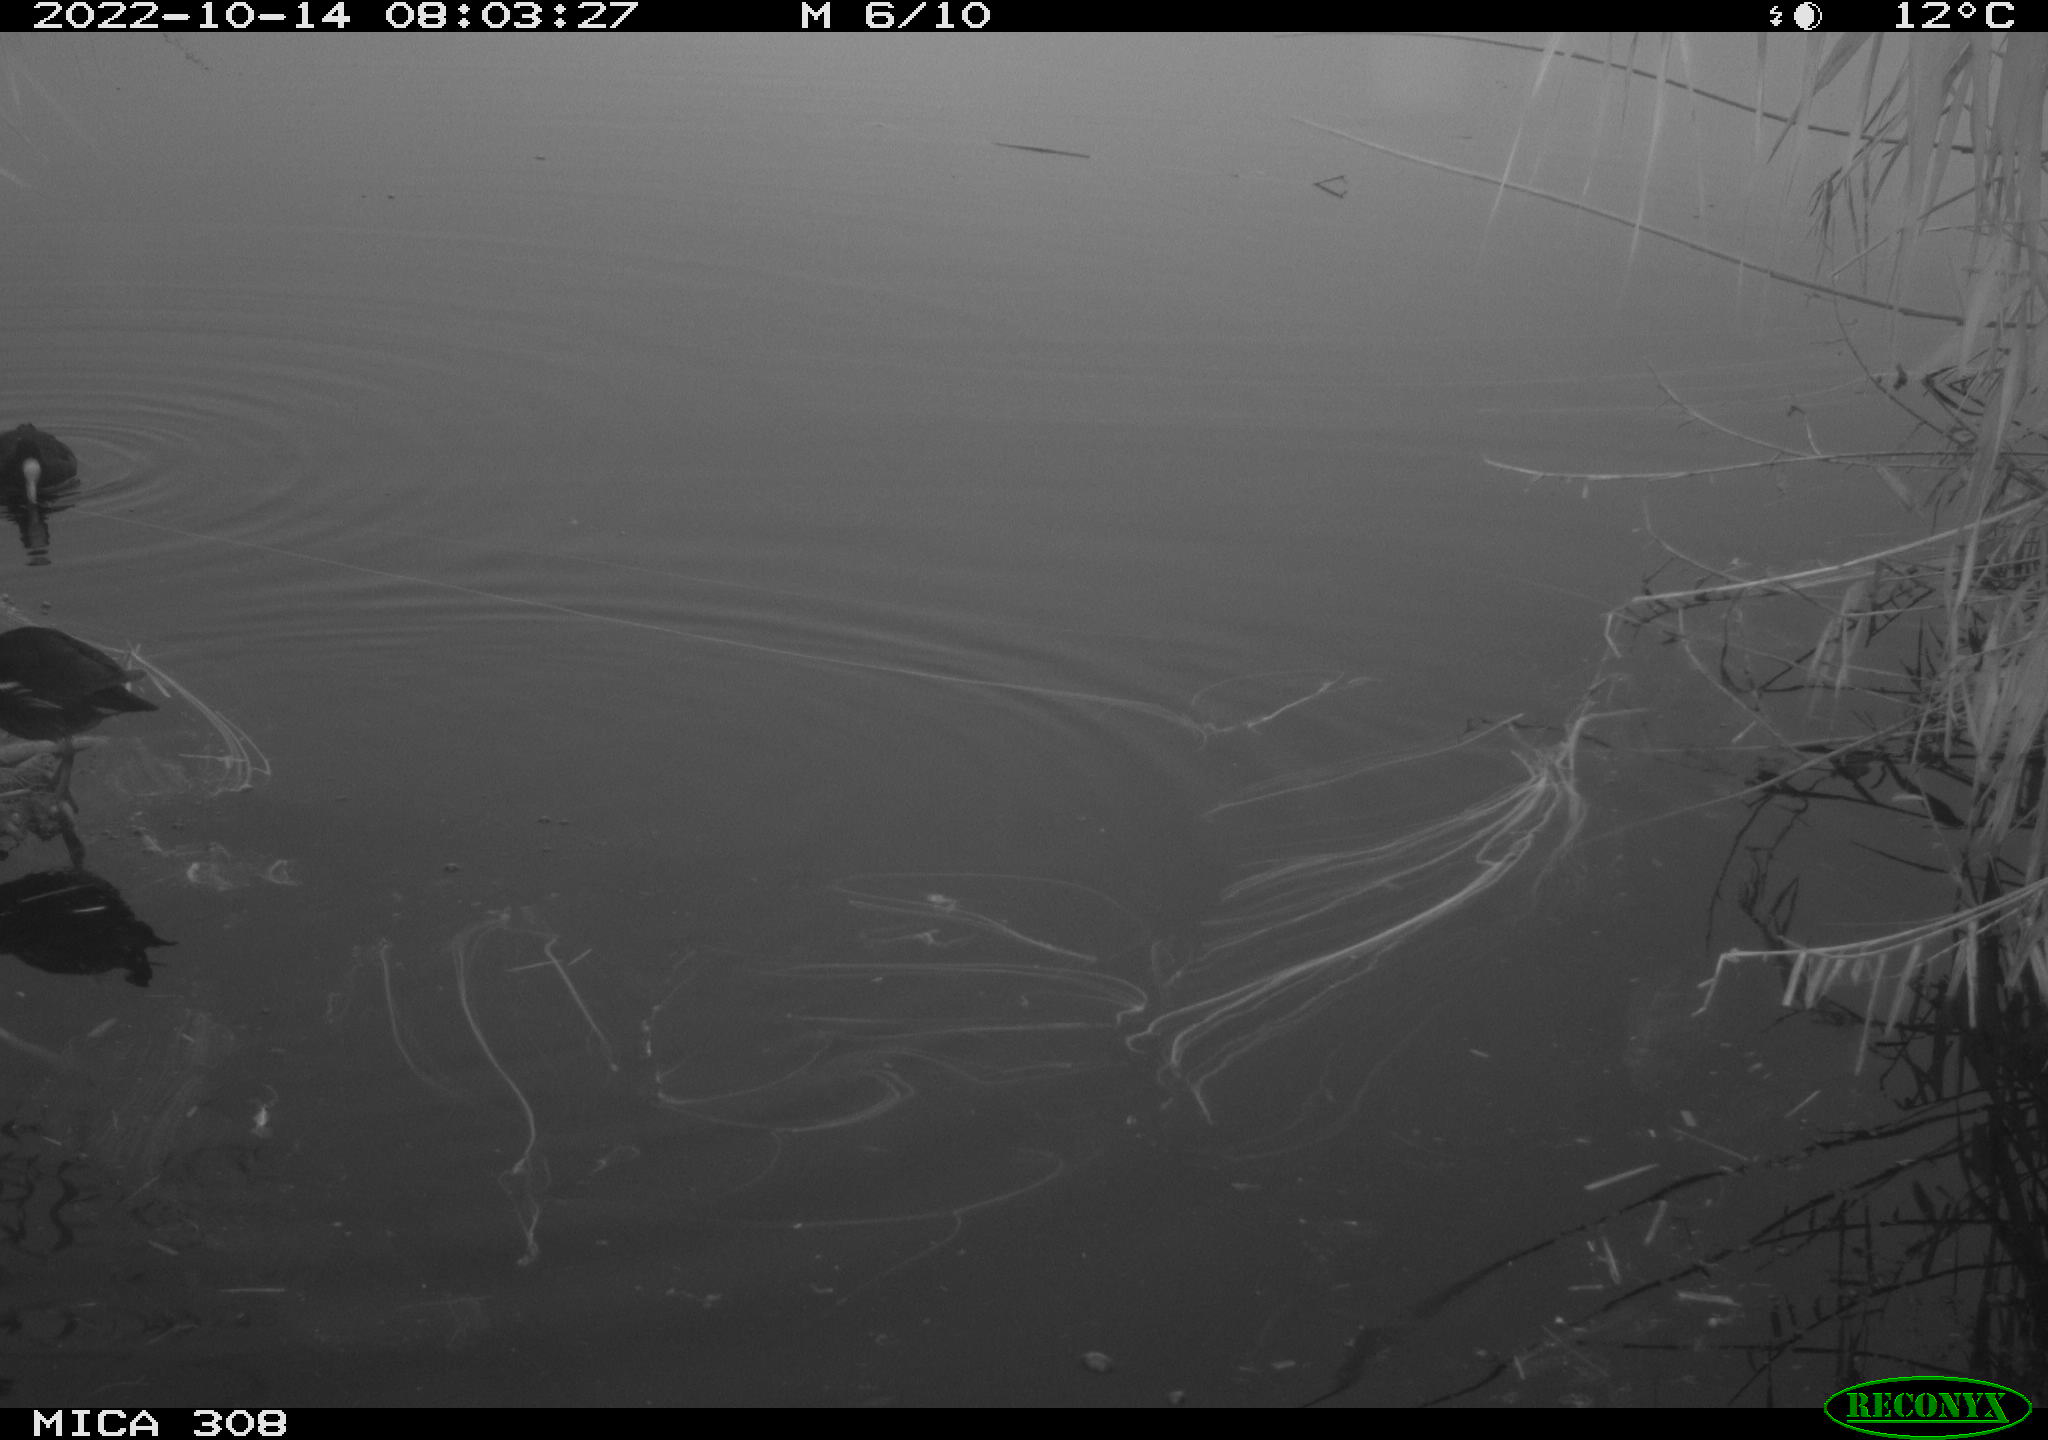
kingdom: Animalia
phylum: Chordata
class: Aves
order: Gruiformes
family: Rallidae
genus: Gallinula
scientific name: Gallinula chloropus
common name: Common moorhen
